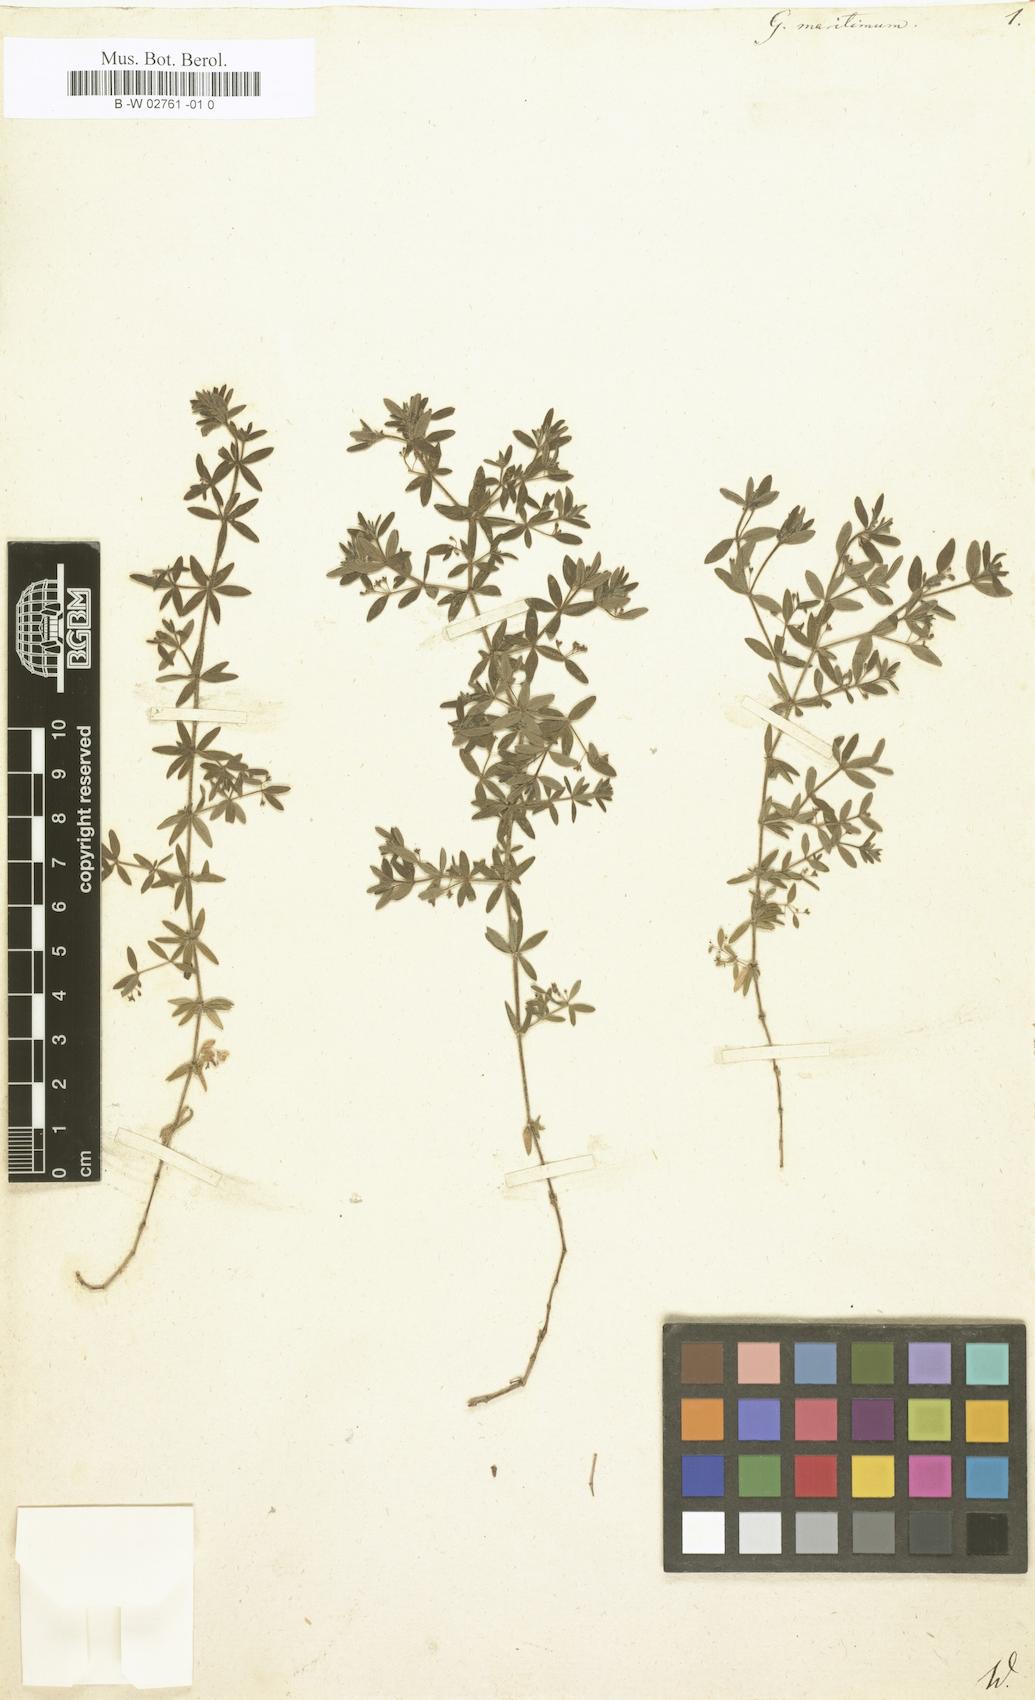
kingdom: Plantae
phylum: Tracheophyta
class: Magnoliopsida
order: Gentianales
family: Rubiaceae
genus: Galium
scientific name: Galium maritimum
